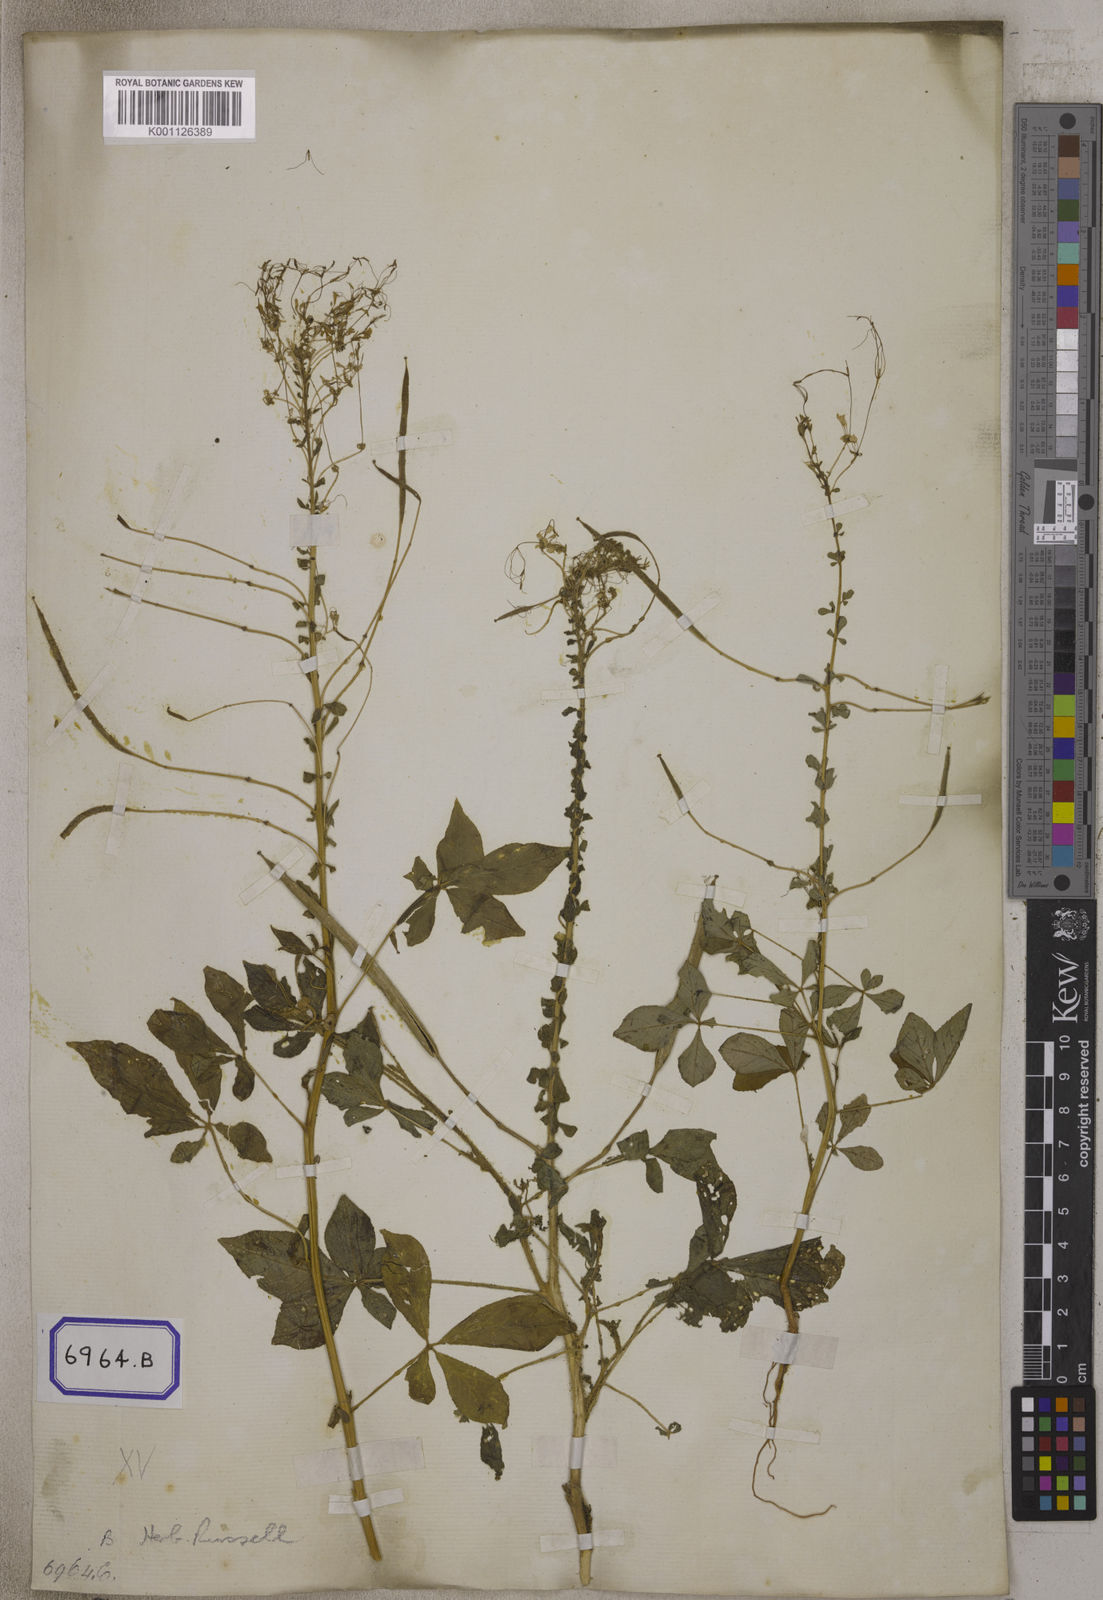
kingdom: Plantae
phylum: Tracheophyta
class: Magnoliopsida
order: Brassicales
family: Cleomaceae
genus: Gynandropsis
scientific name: Gynandropsis gynandra
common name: Spiderwisp
